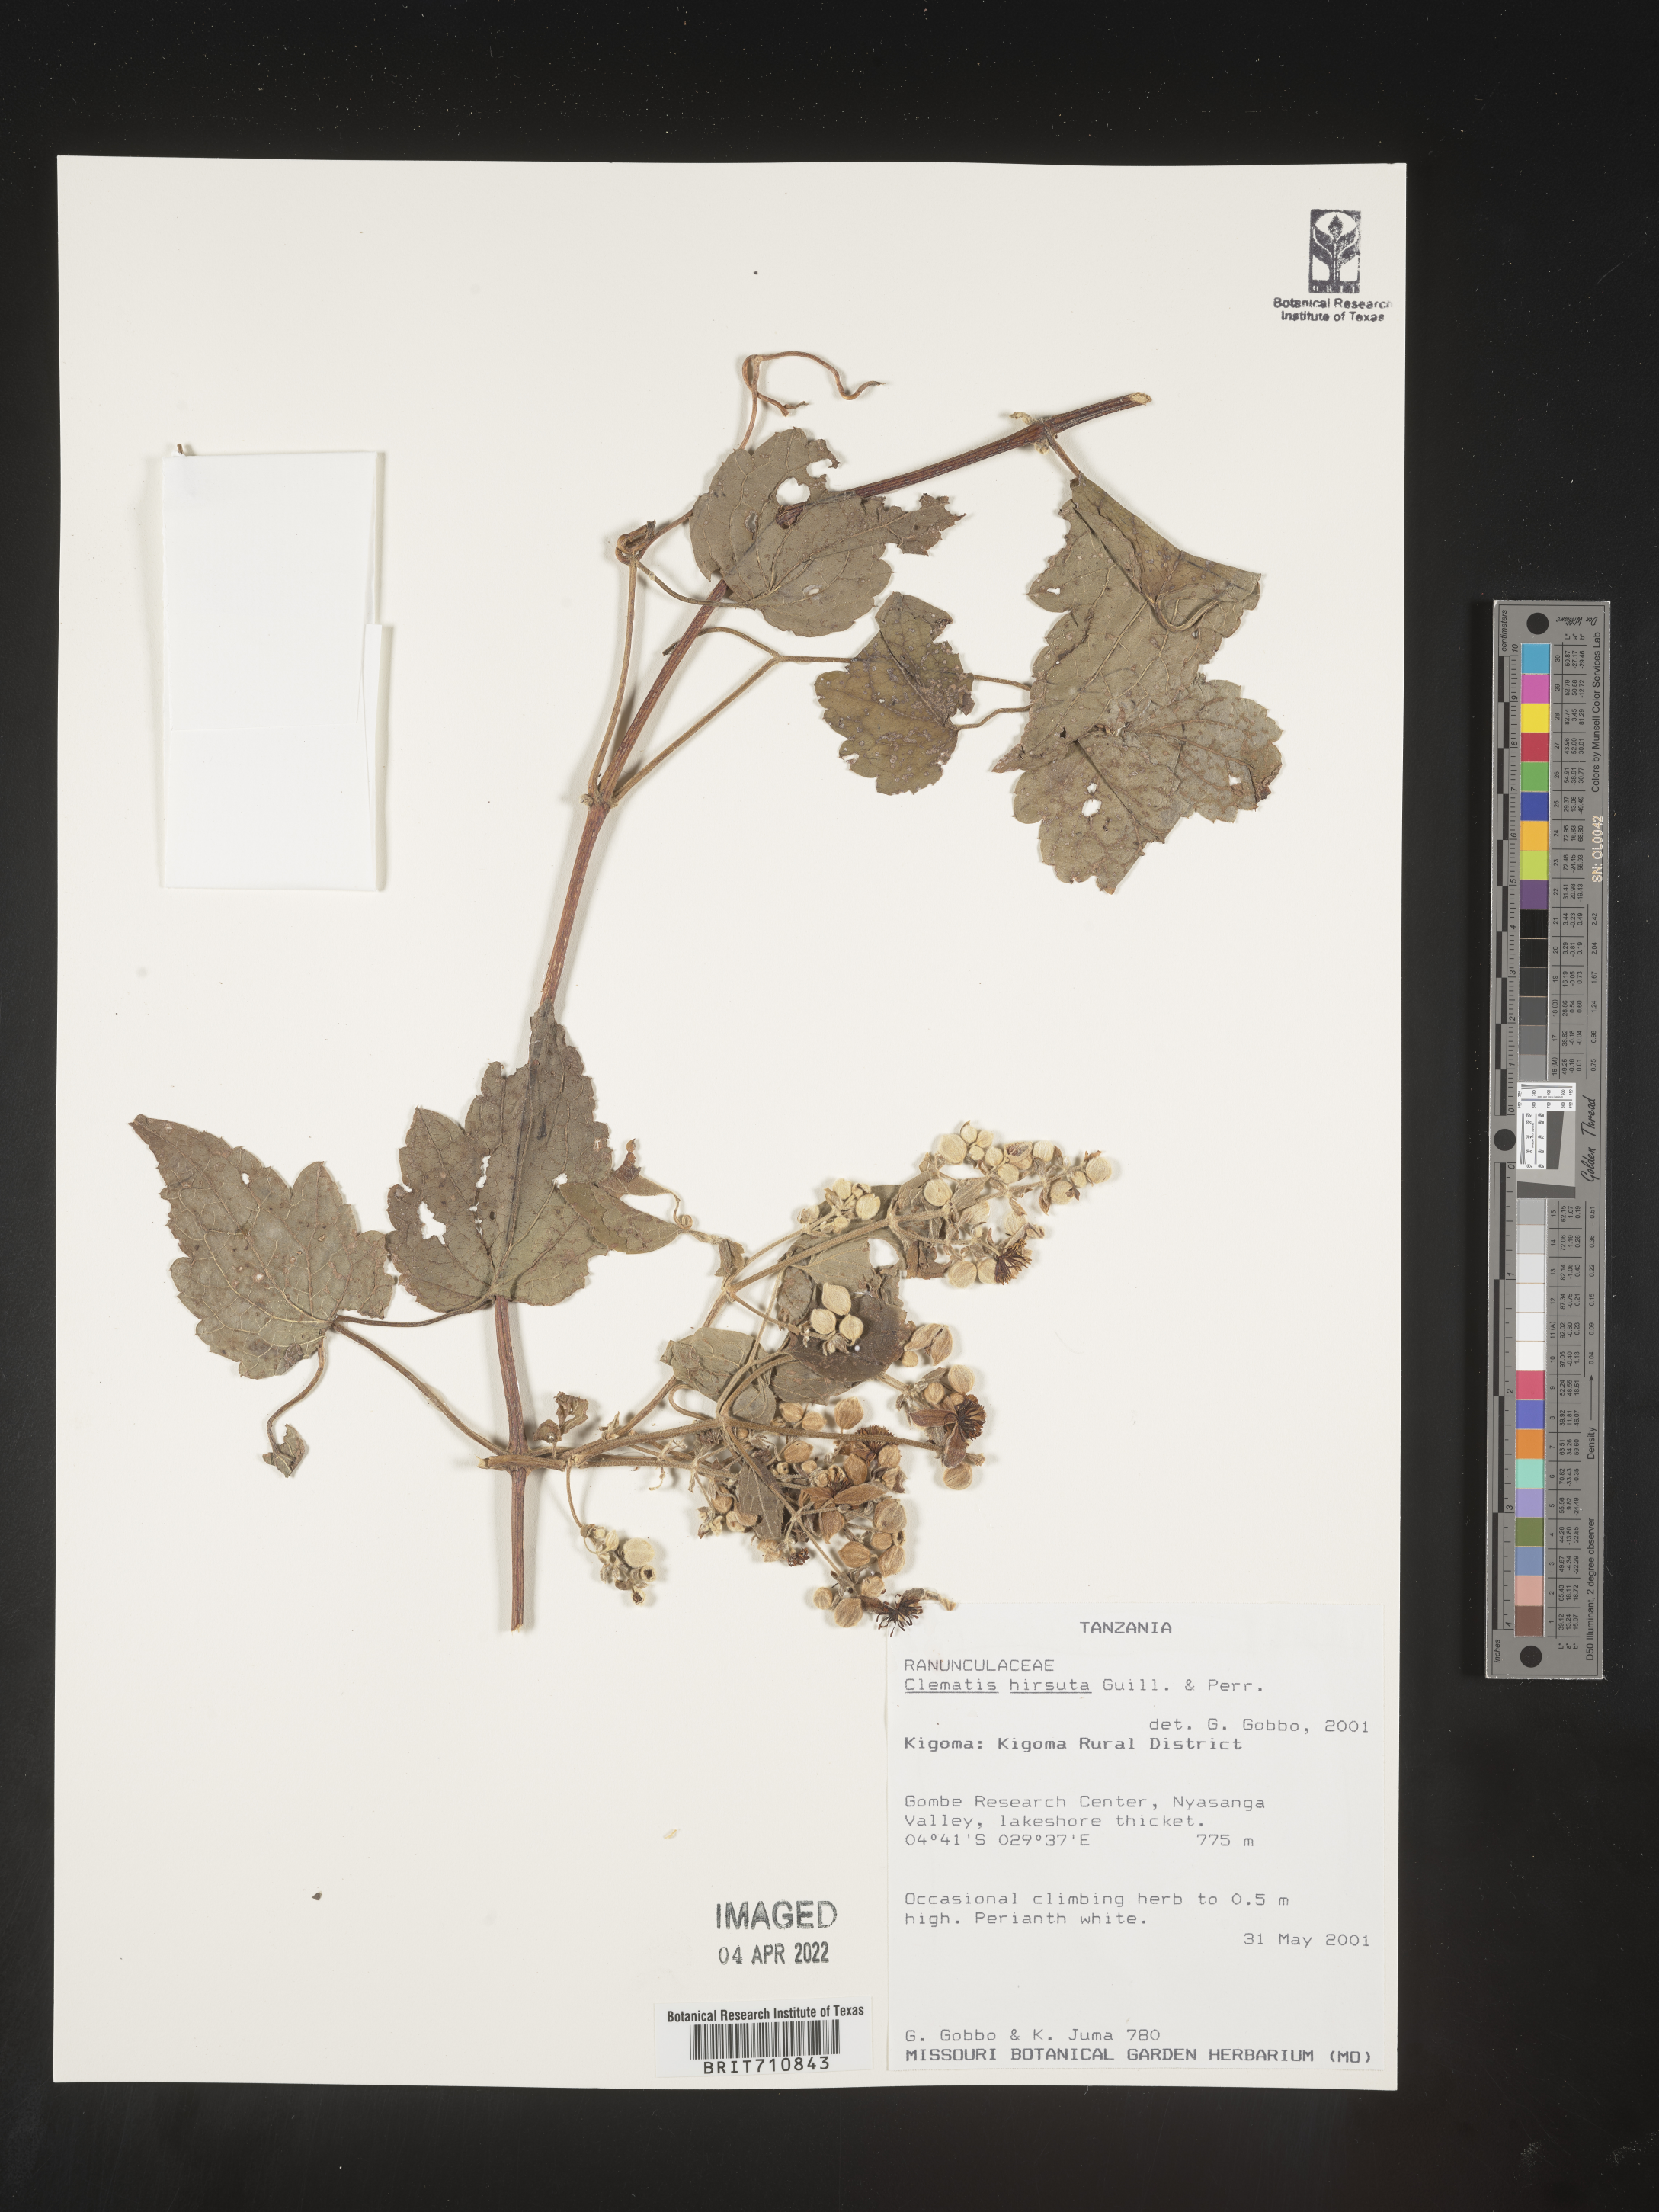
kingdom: Plantae
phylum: Tracheophyta
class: Magnoliopsida
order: Ranunculales
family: Ranunculaceae
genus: Clematis
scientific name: Clematis
